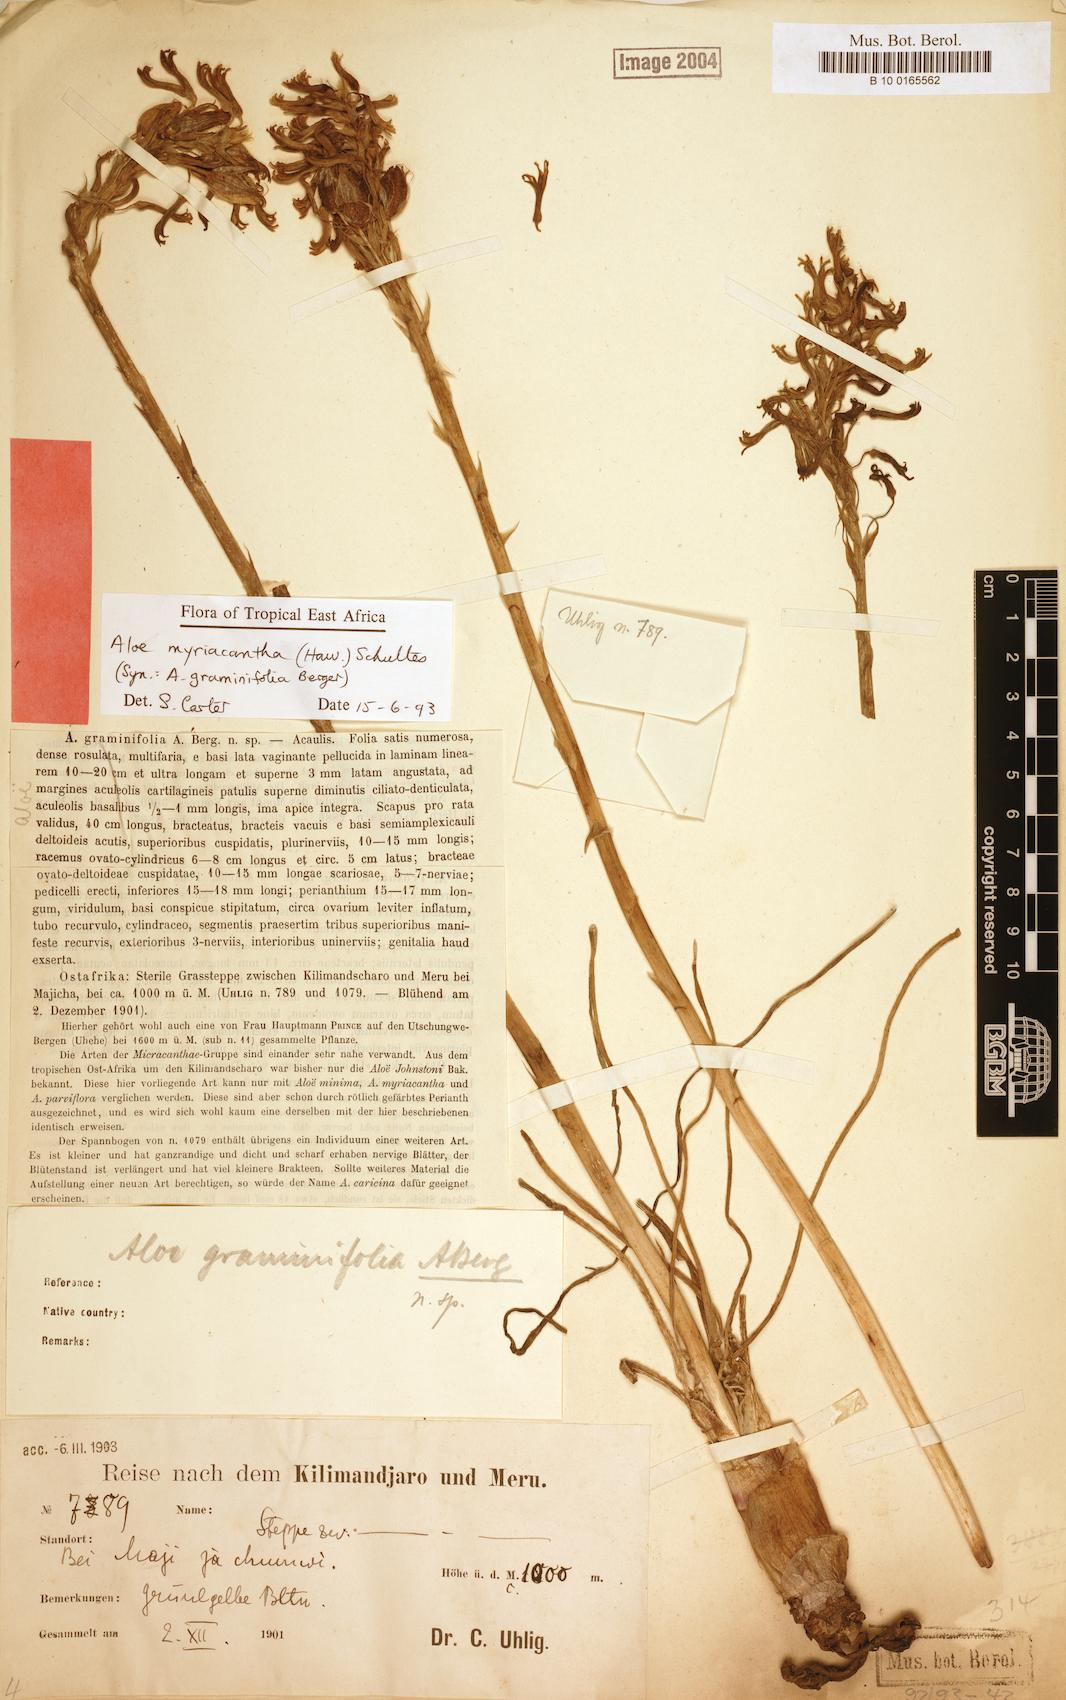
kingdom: Plantae
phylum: Tracheophyta
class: Liliopsida
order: Asparagales
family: Asphodelaceae
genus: Aloe
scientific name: Aloe myriacantha
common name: Grass aloe
